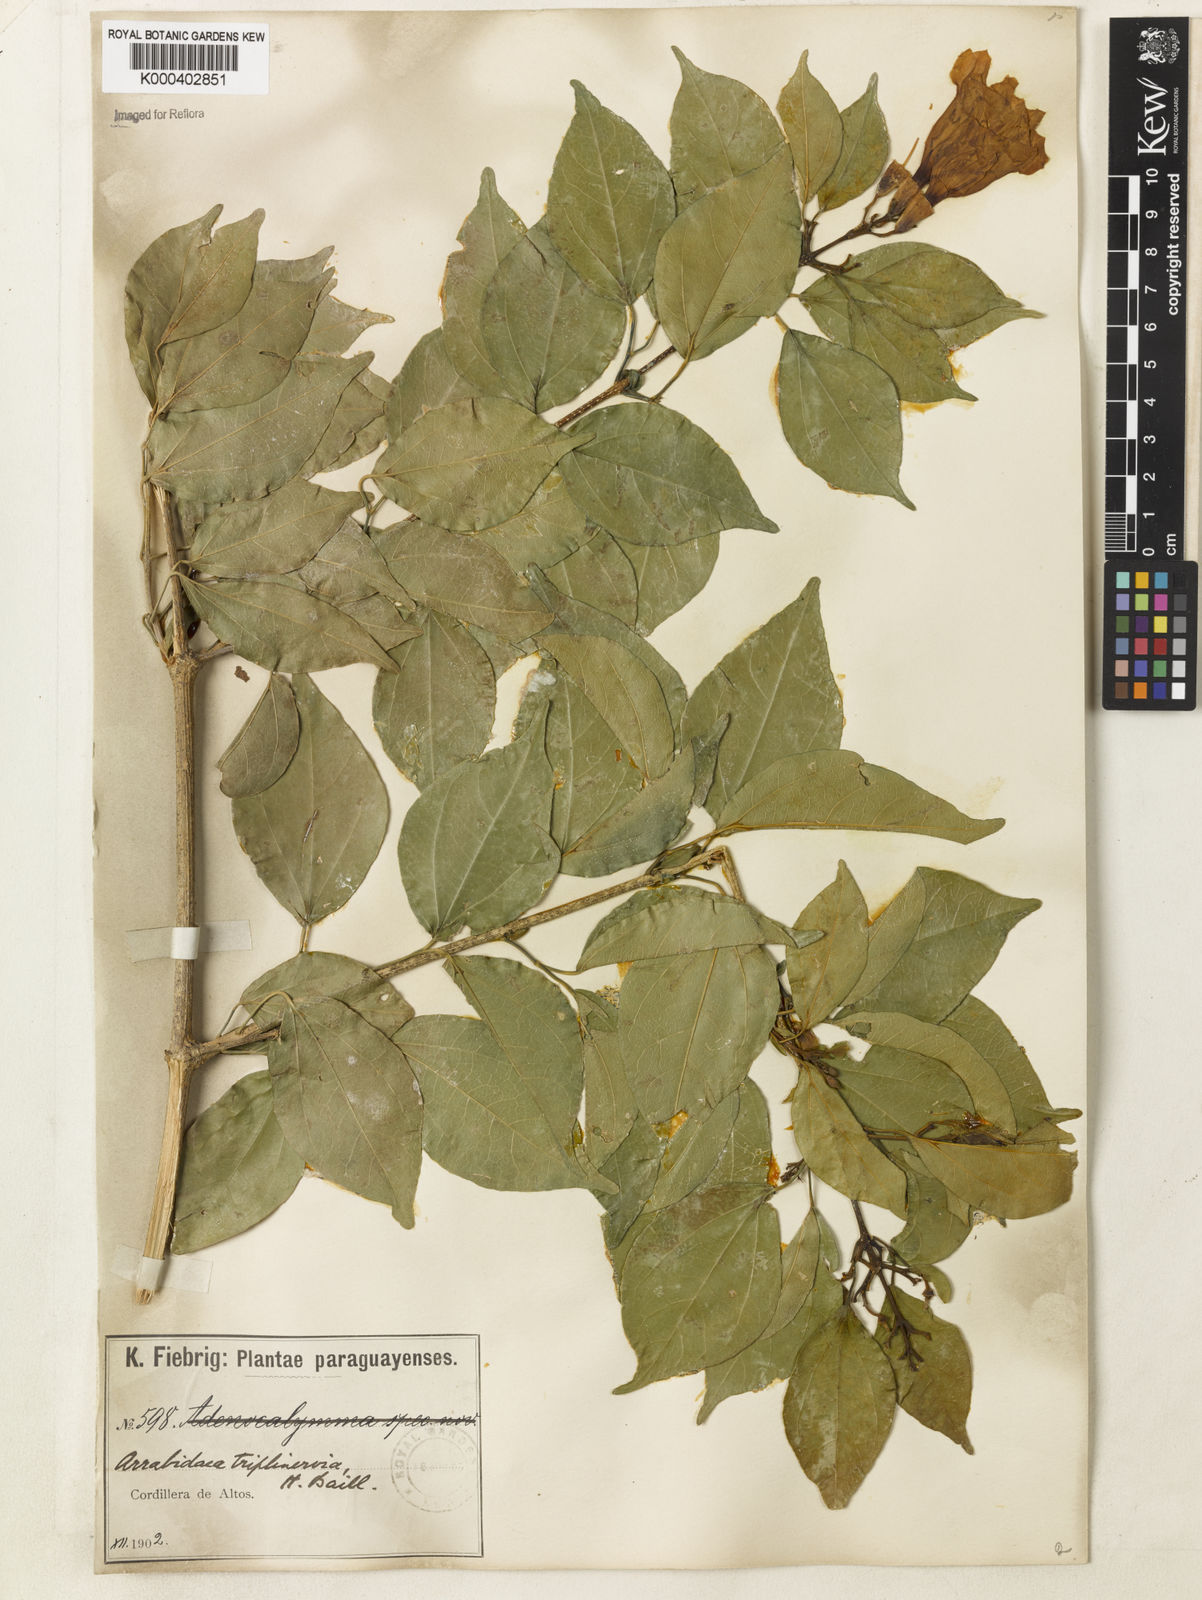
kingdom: Plantae
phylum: Tracheophyta
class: Magnoliopsida
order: Lamiales
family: Bignoniaceae
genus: Fridericia
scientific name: Fridericia triplinervia
